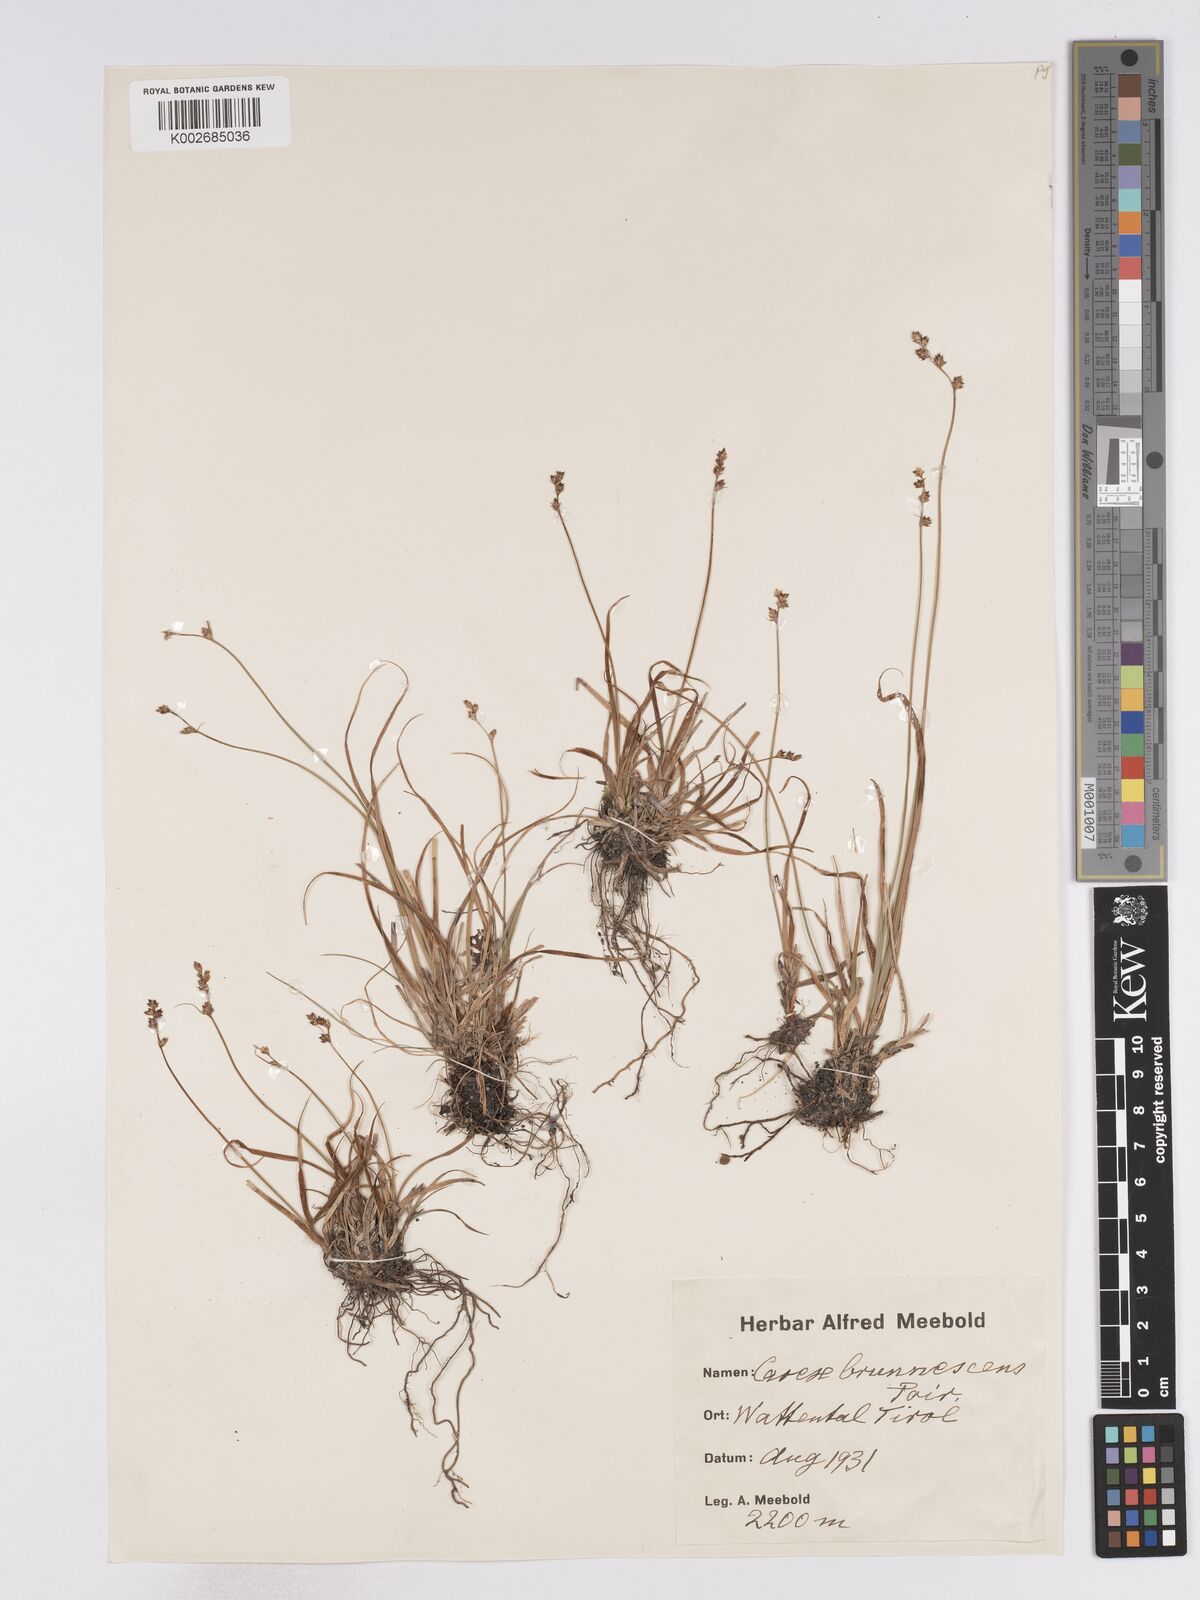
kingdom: Plantae
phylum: Tracheophyta
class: Liliopsida
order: Poales
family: Cyperaceae
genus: Carex
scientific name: Carex brunnescens
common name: Brown sedge
